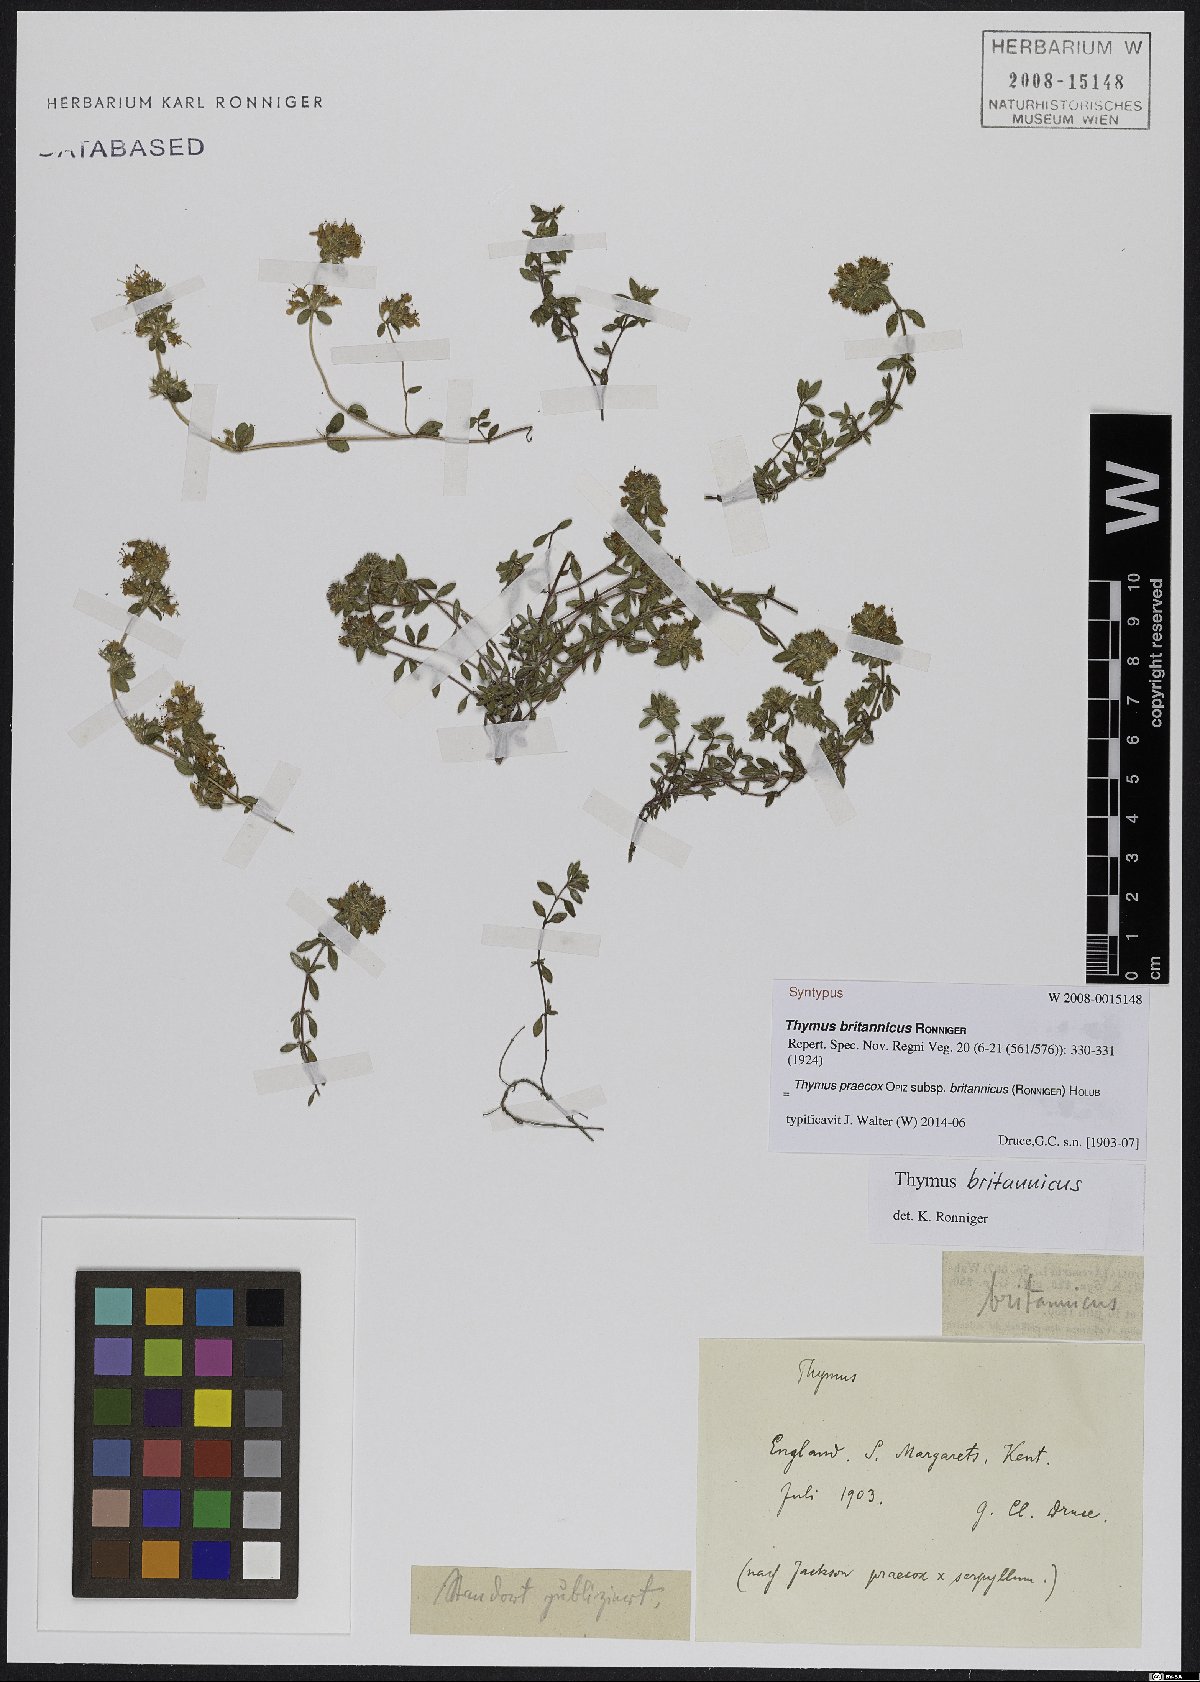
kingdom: Plantae
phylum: Tracheophyta
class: Magnoliopsida
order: Lamiales
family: Lamiaceae
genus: Thymus
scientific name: Thymus praecox
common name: Wild thyme
